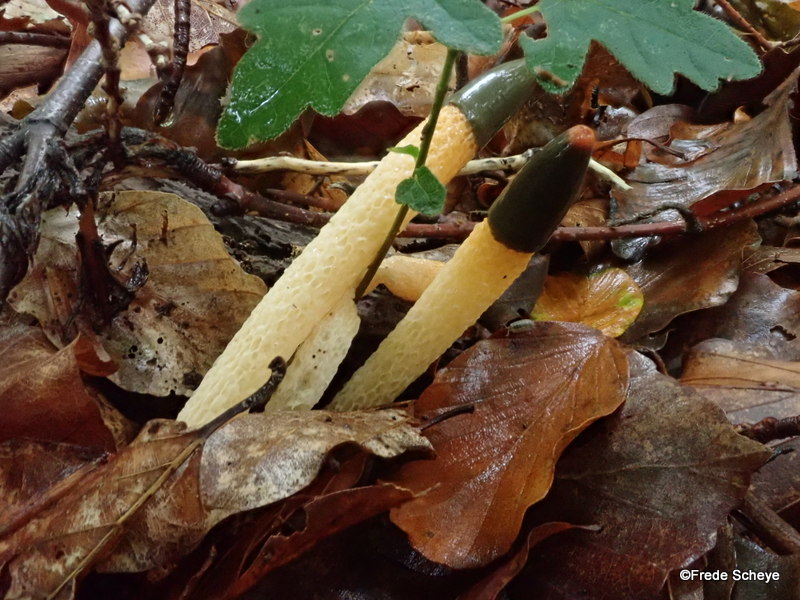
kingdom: Fungi
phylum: Basidiomycota
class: Agaricomycetes
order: Phallales
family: Phallaceae
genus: Mutinus
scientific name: Mutinus caninus
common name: hunde-stinksvamp
